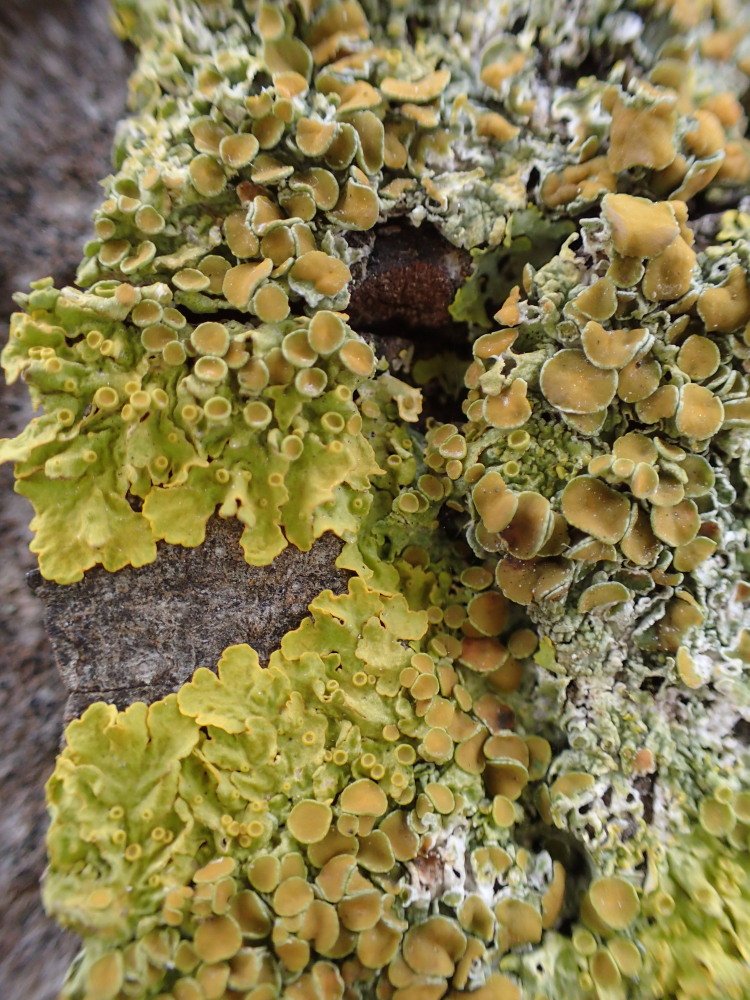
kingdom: Fungi
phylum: Ascomycota
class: Lecanoromycetes
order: Teloschistales
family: Teloschistaceae
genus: Xanthoria
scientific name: Xanthoria parietina
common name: almindelig væggelav
